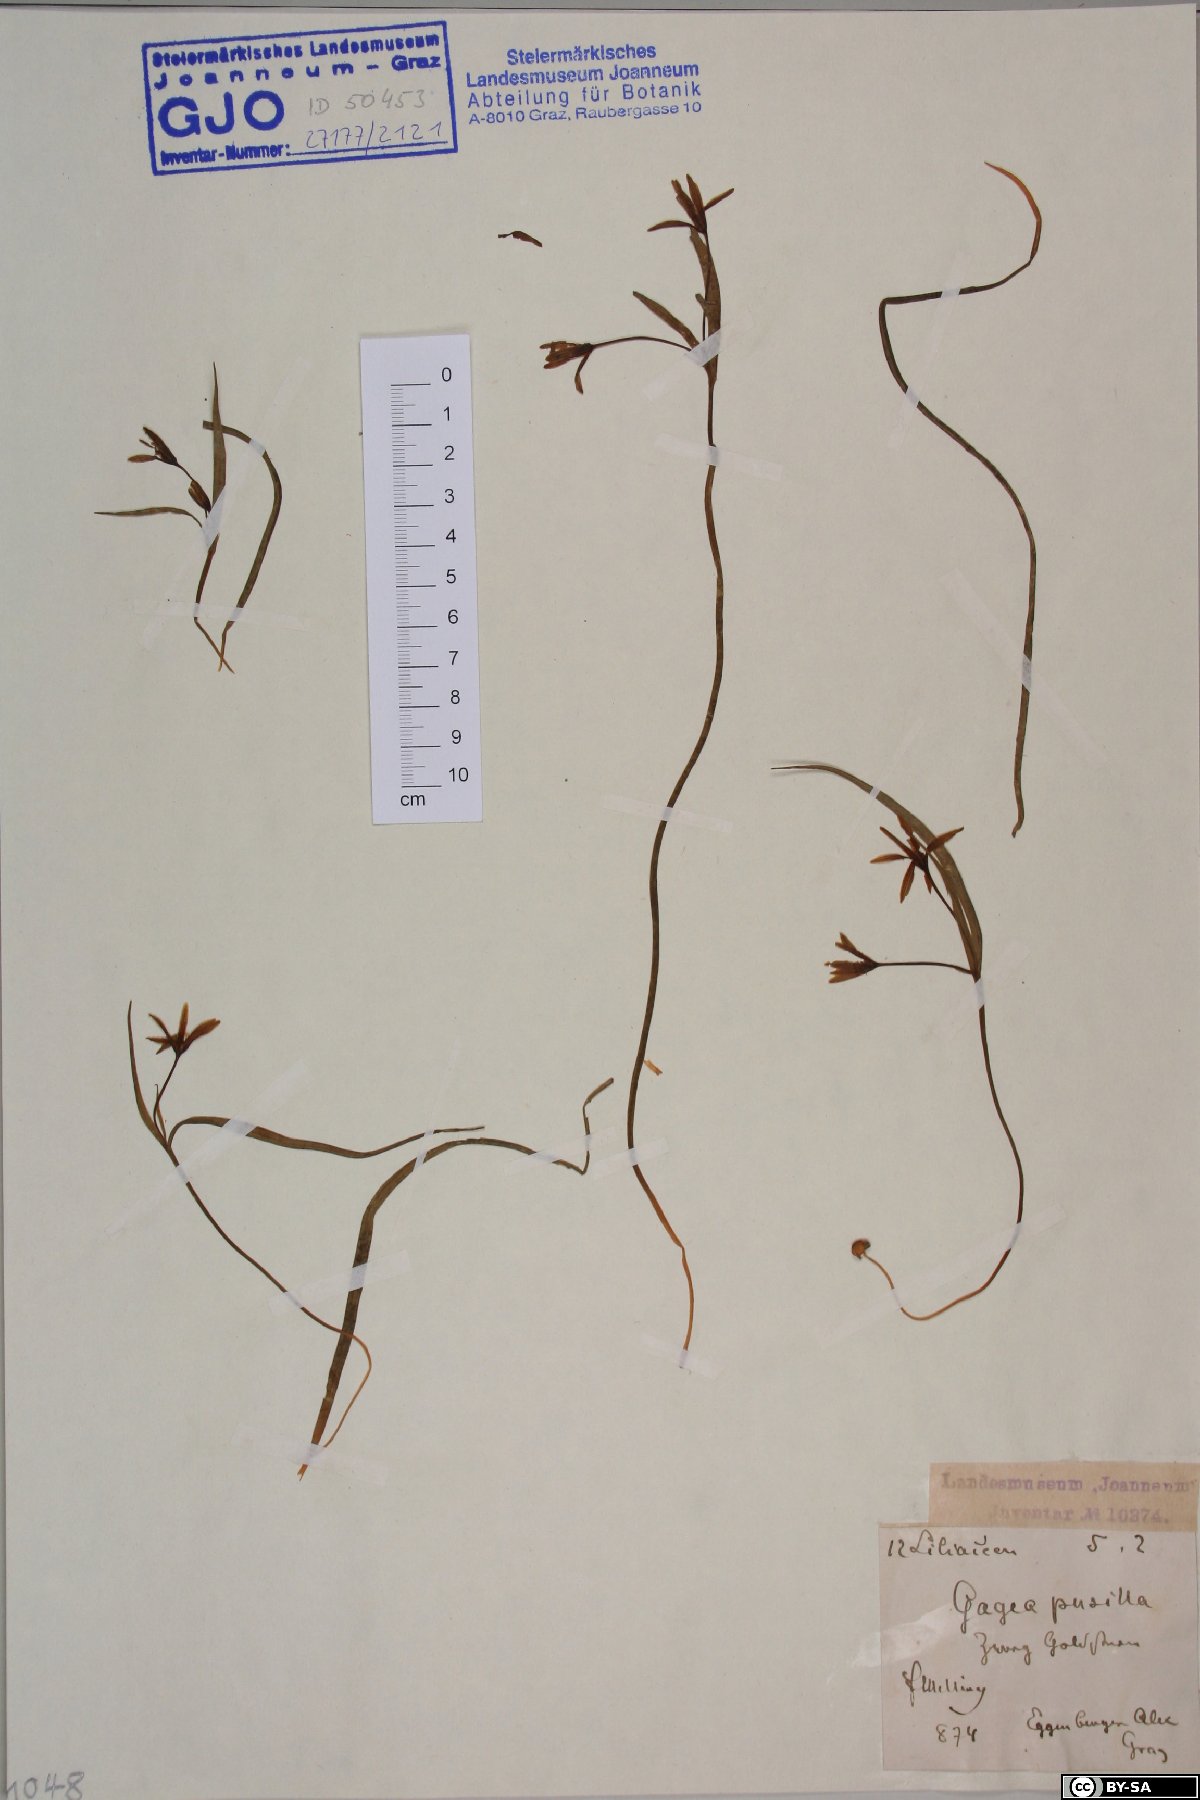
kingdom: Plantae
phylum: Tracheophyta
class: Liliopsida
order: Liliales
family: Liliaceae
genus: Gagea
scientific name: Gagea pusilla
